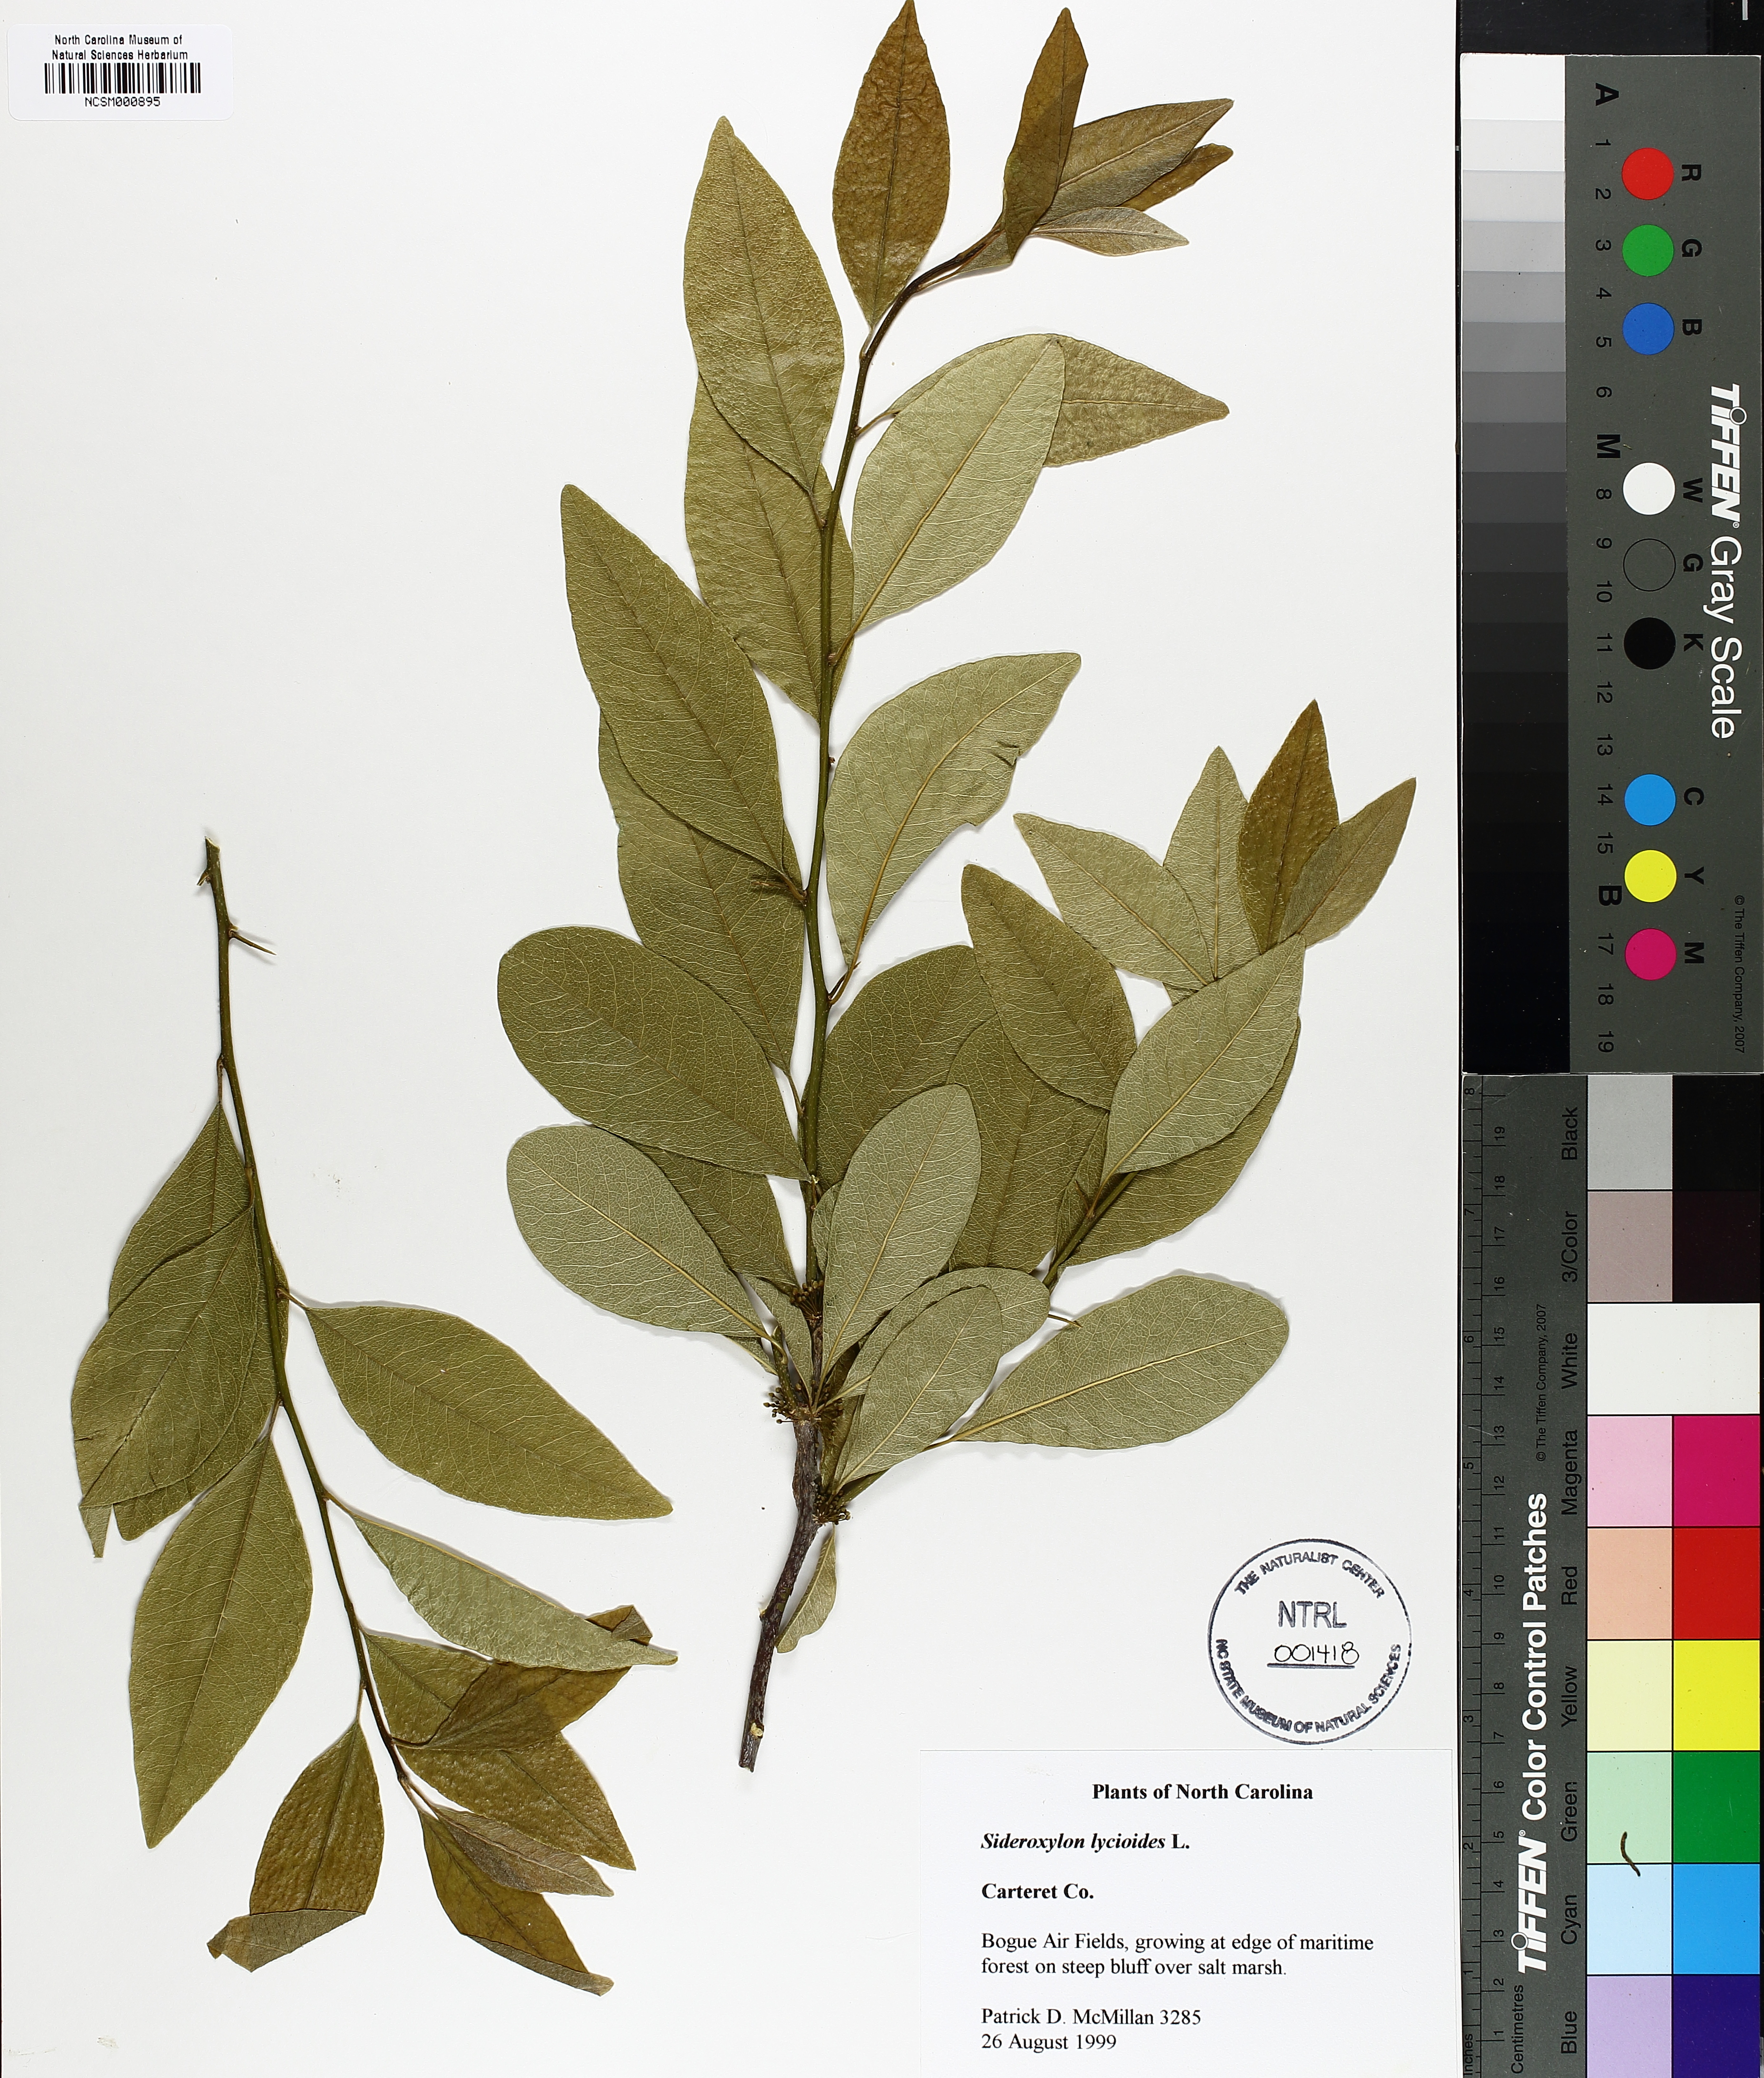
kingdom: Plantae
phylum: Tracheophyta
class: Magnoliopsida
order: Ericales
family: Sapotaceae
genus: Sideroxylon
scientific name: Sideroxylon lycioides
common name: Buckthorn bumelia
